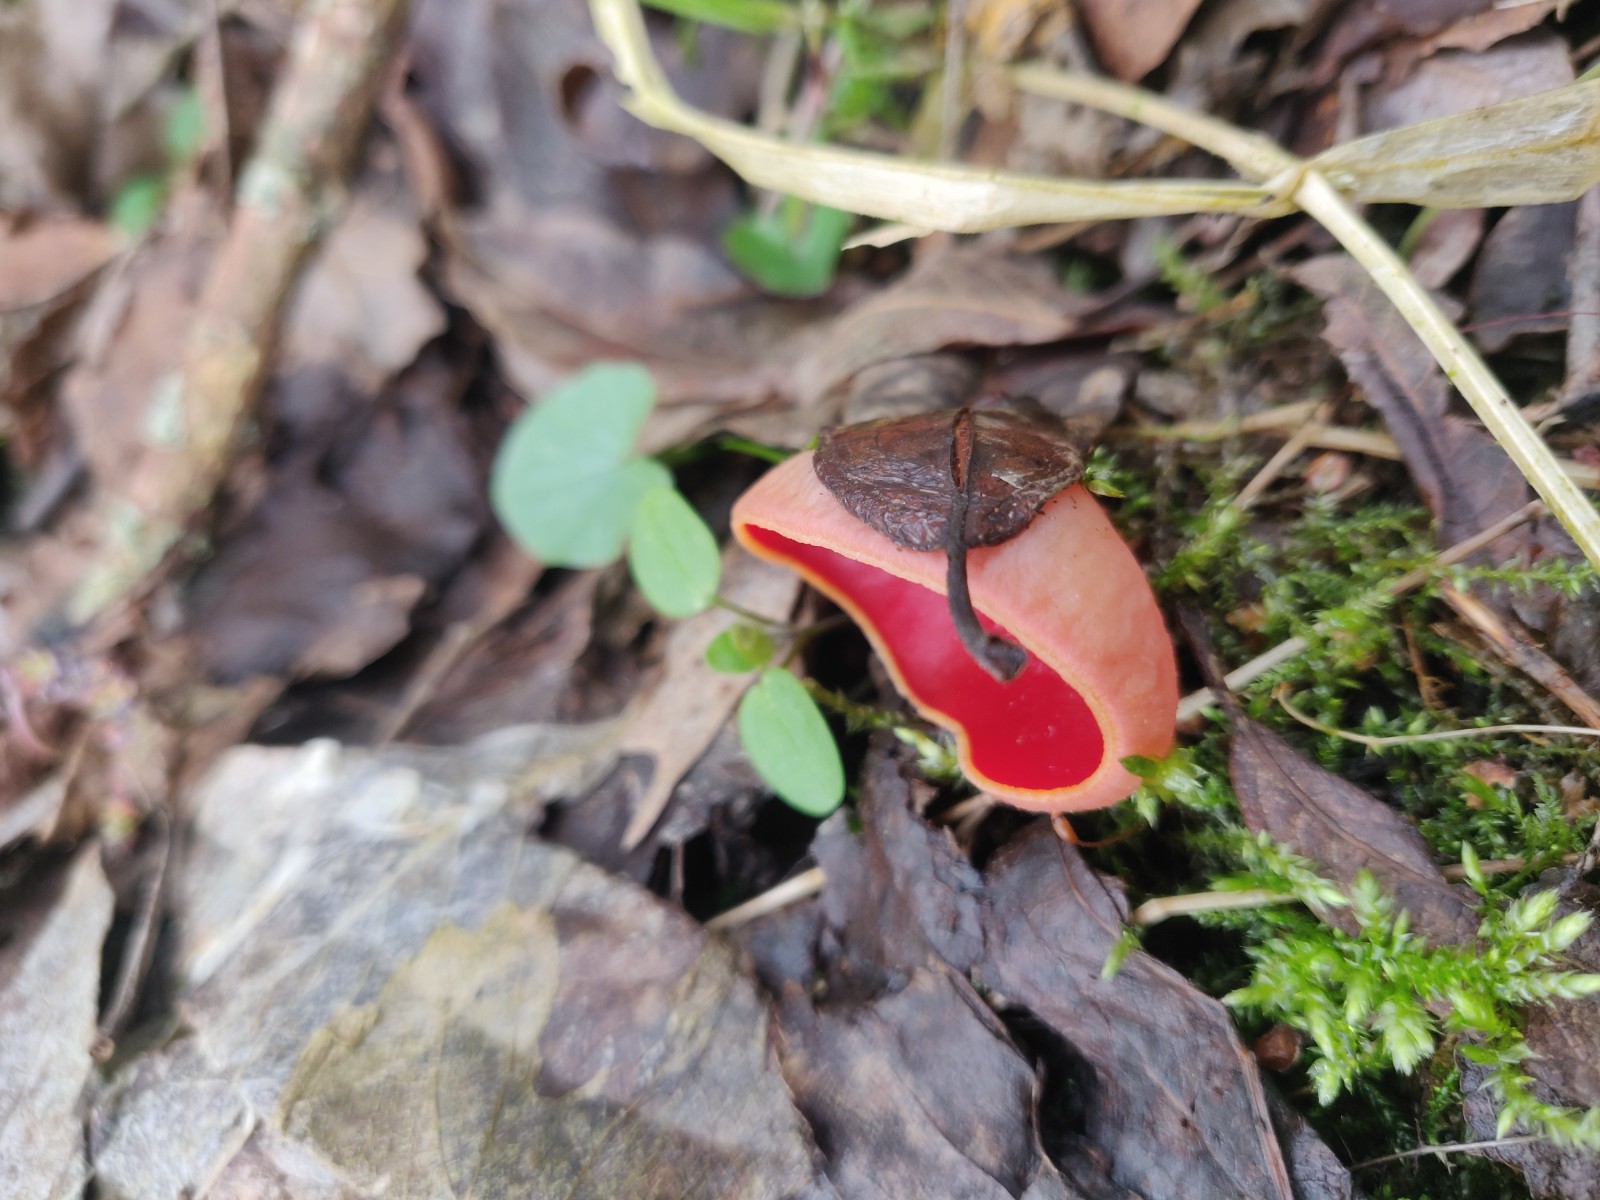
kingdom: Fungi
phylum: Ascomycota
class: Pezizomycetes
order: Pezizales
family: Sarcoscyphaceae
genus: Sarcoscypha
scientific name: Sarcoscypha austriaca
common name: krølhåret pragtbæger
